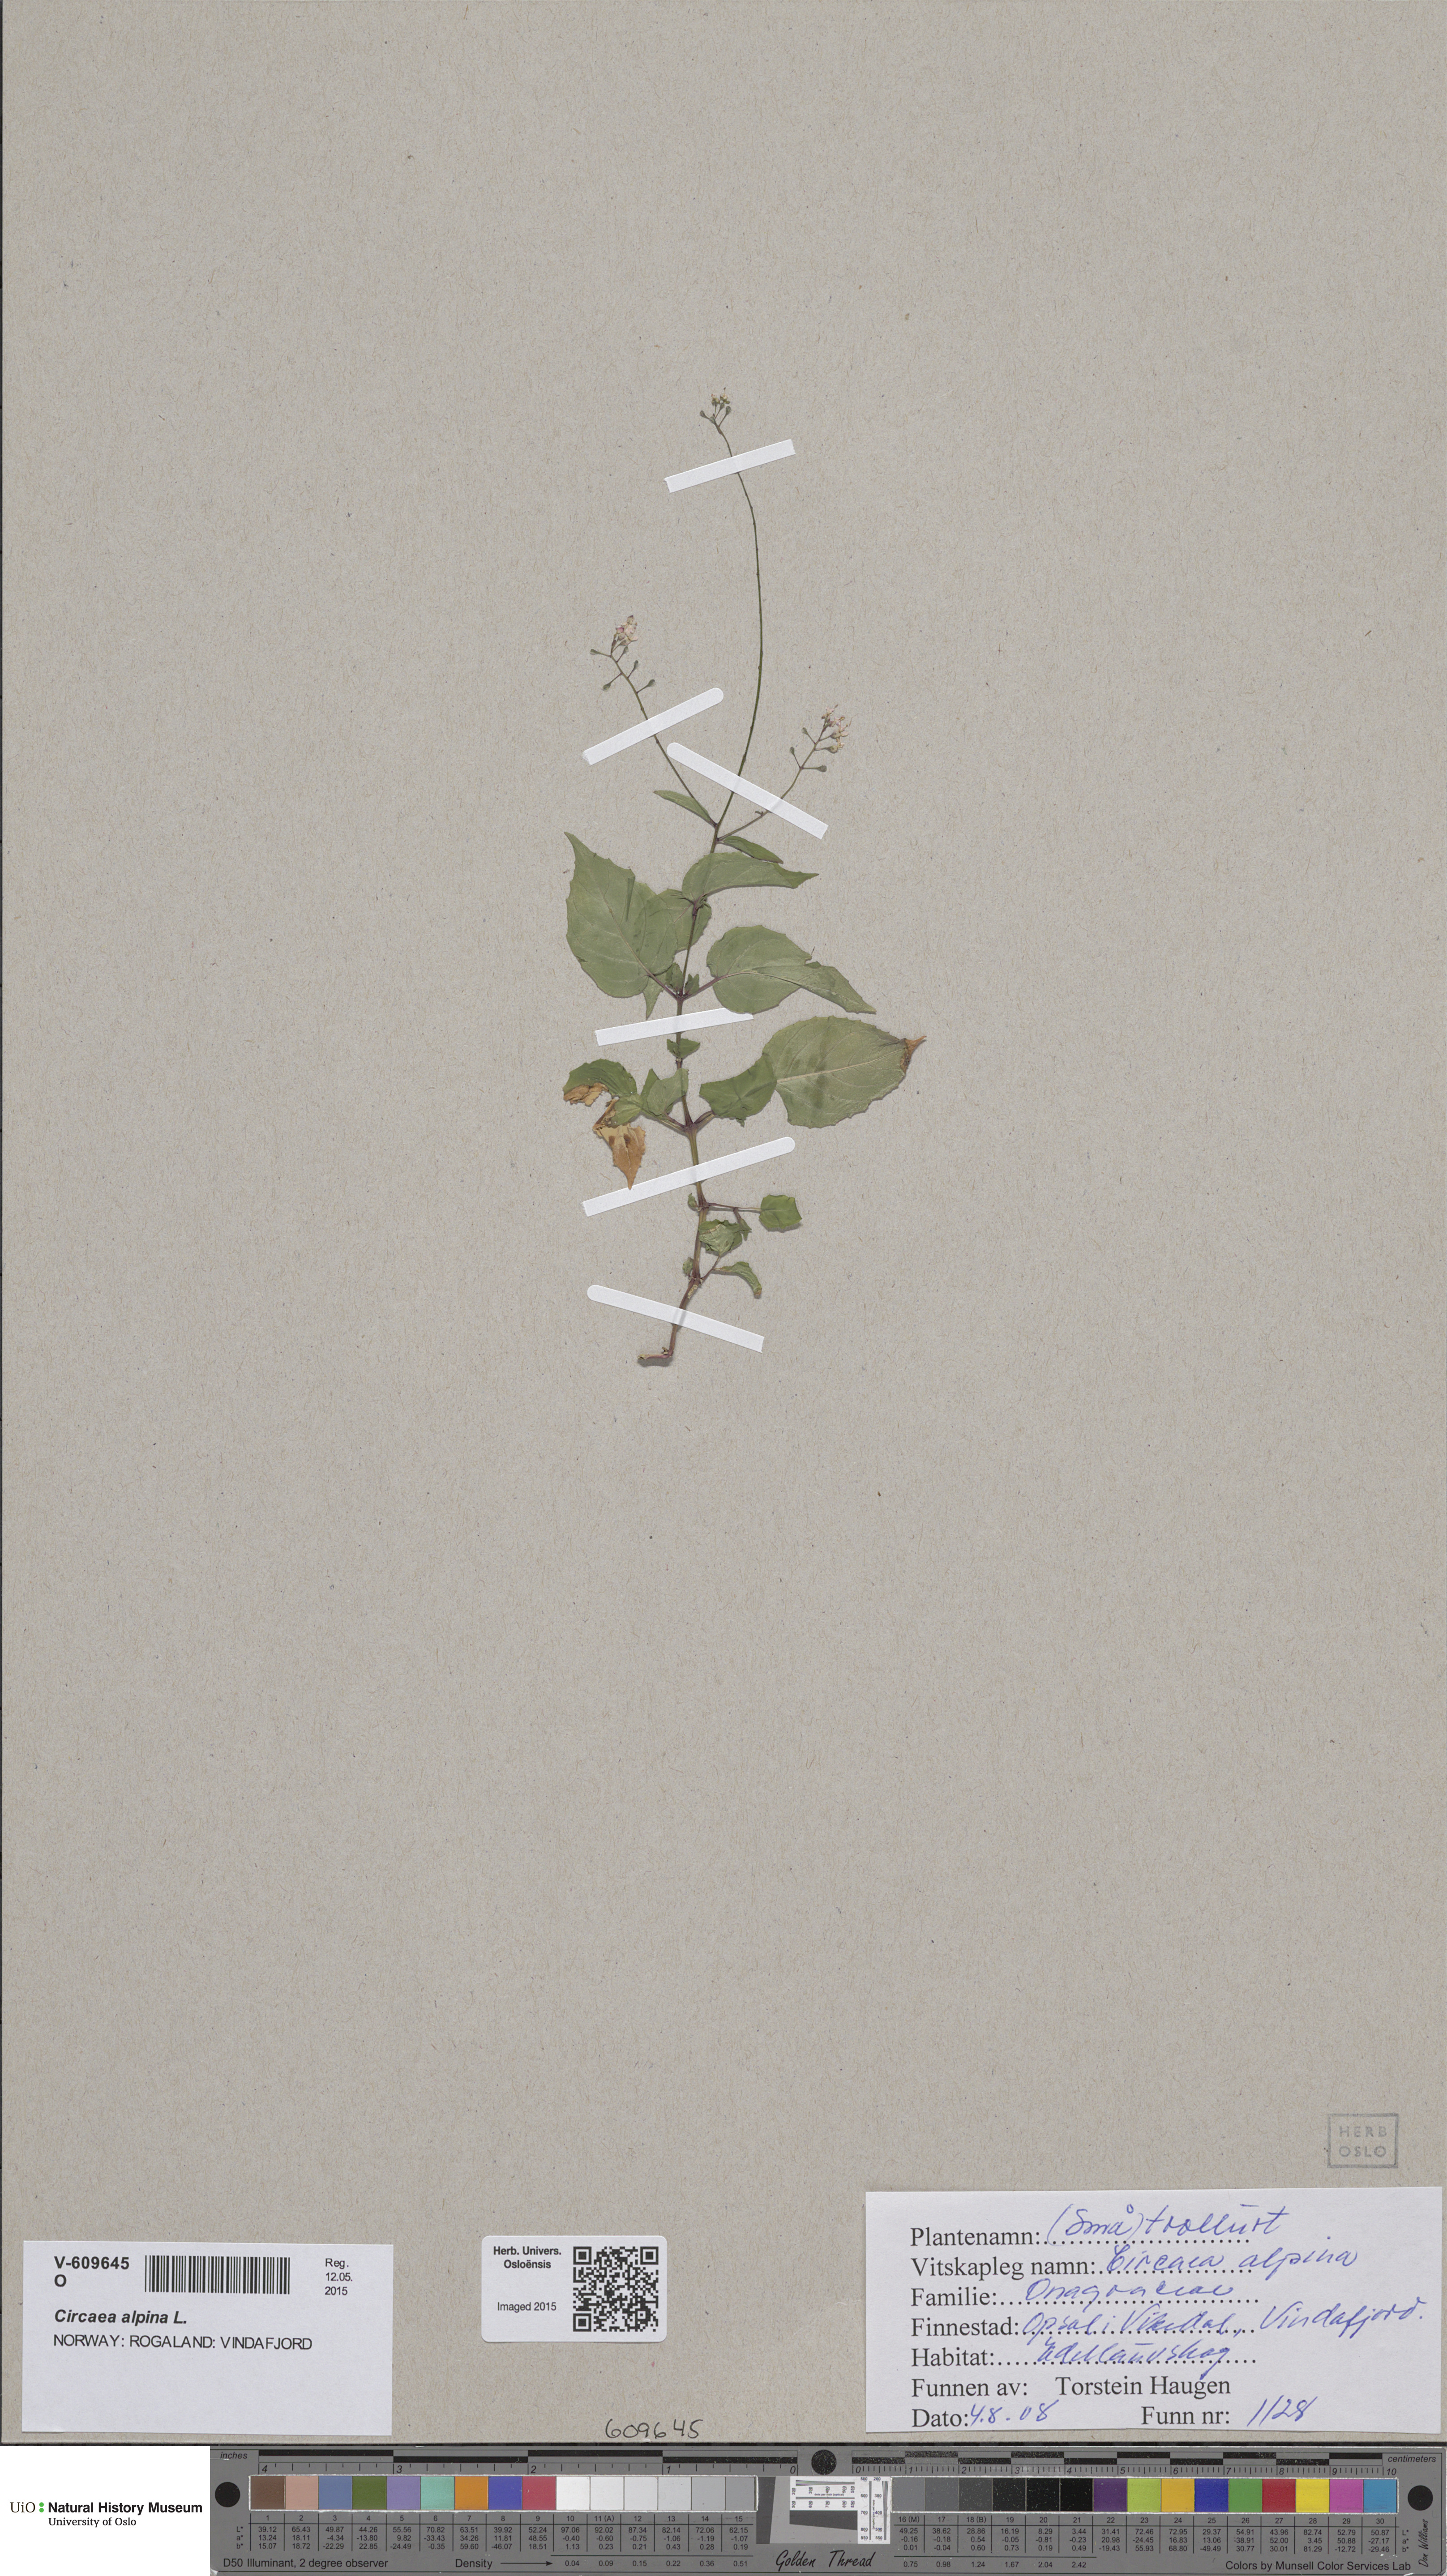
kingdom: Plantae
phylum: Tracheophyta
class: Magnoliopsida
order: Myrtales
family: Onagraceae
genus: Circaea
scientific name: Circaea alpina
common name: Alpine enchanter's-nightshade
